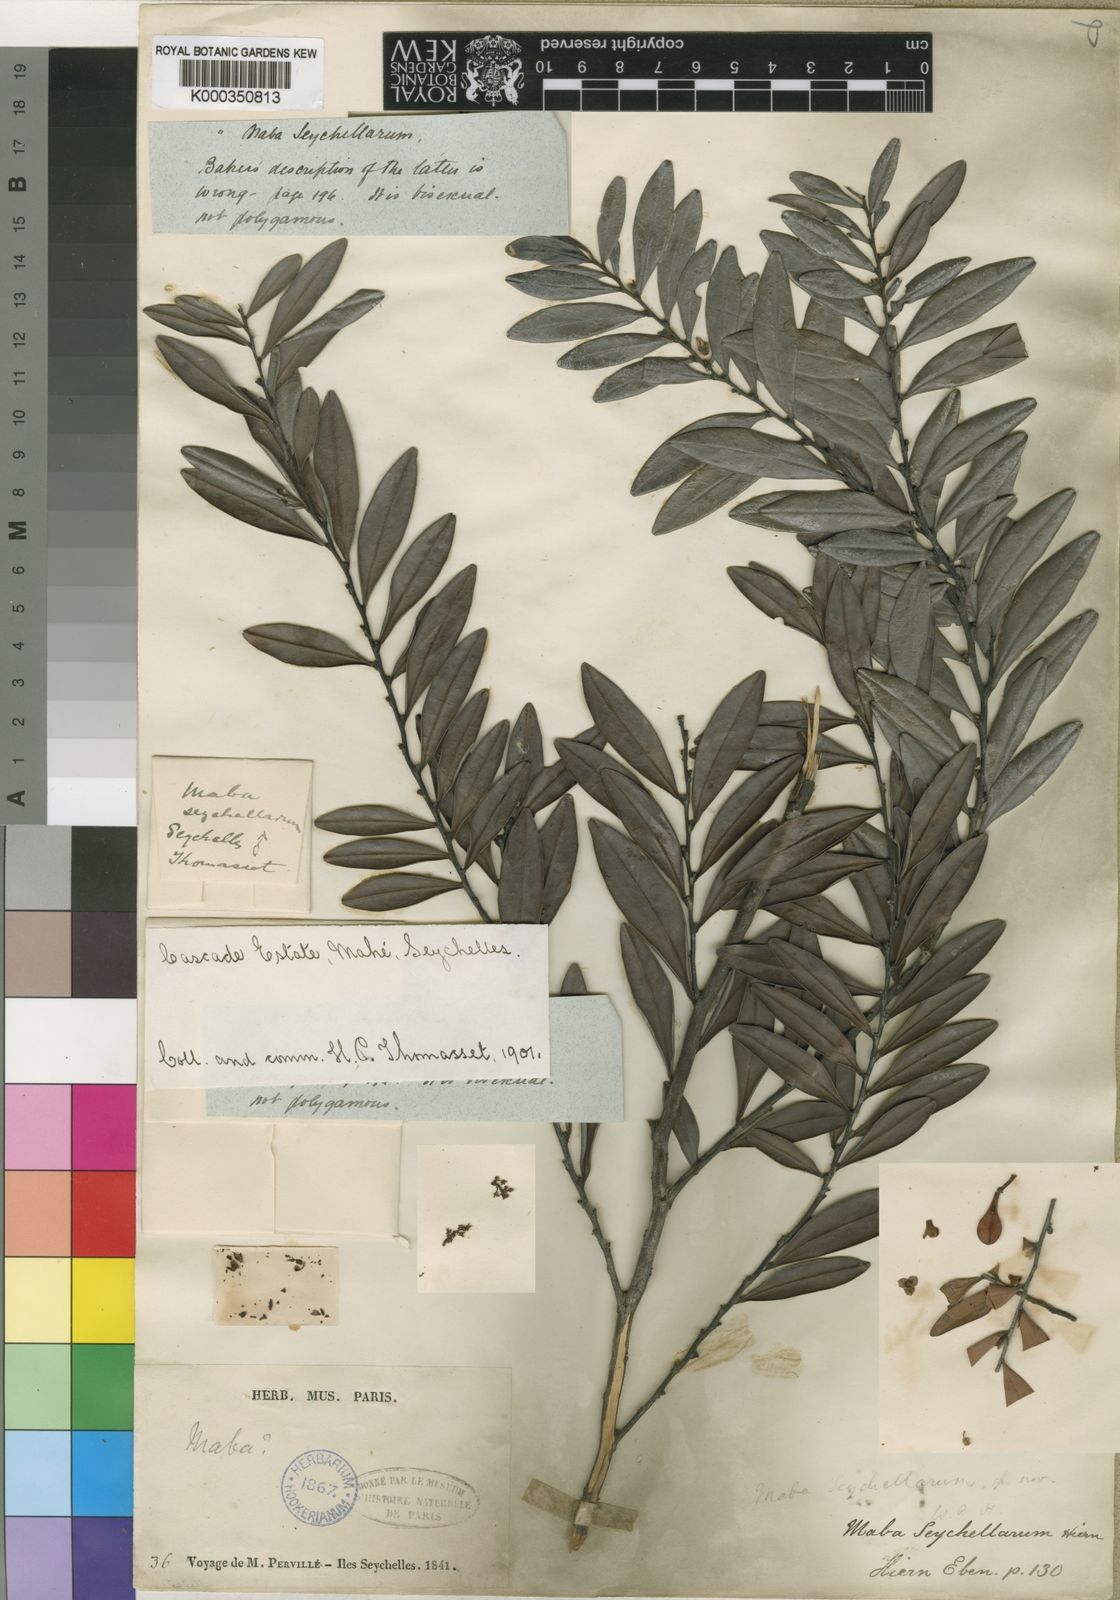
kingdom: Plantae
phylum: Tracheophyta
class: Magnoliopsida
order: Ericales
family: Ebenaceae
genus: Diospyros
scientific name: Diospyros boiviniana
